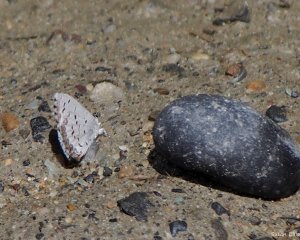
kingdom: Animalia
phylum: Arthropoda
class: Insecta
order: Lepidoptera
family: Lycaenidae
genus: Celastrina
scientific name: Celastrina lucia
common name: Northern Spring Azure
